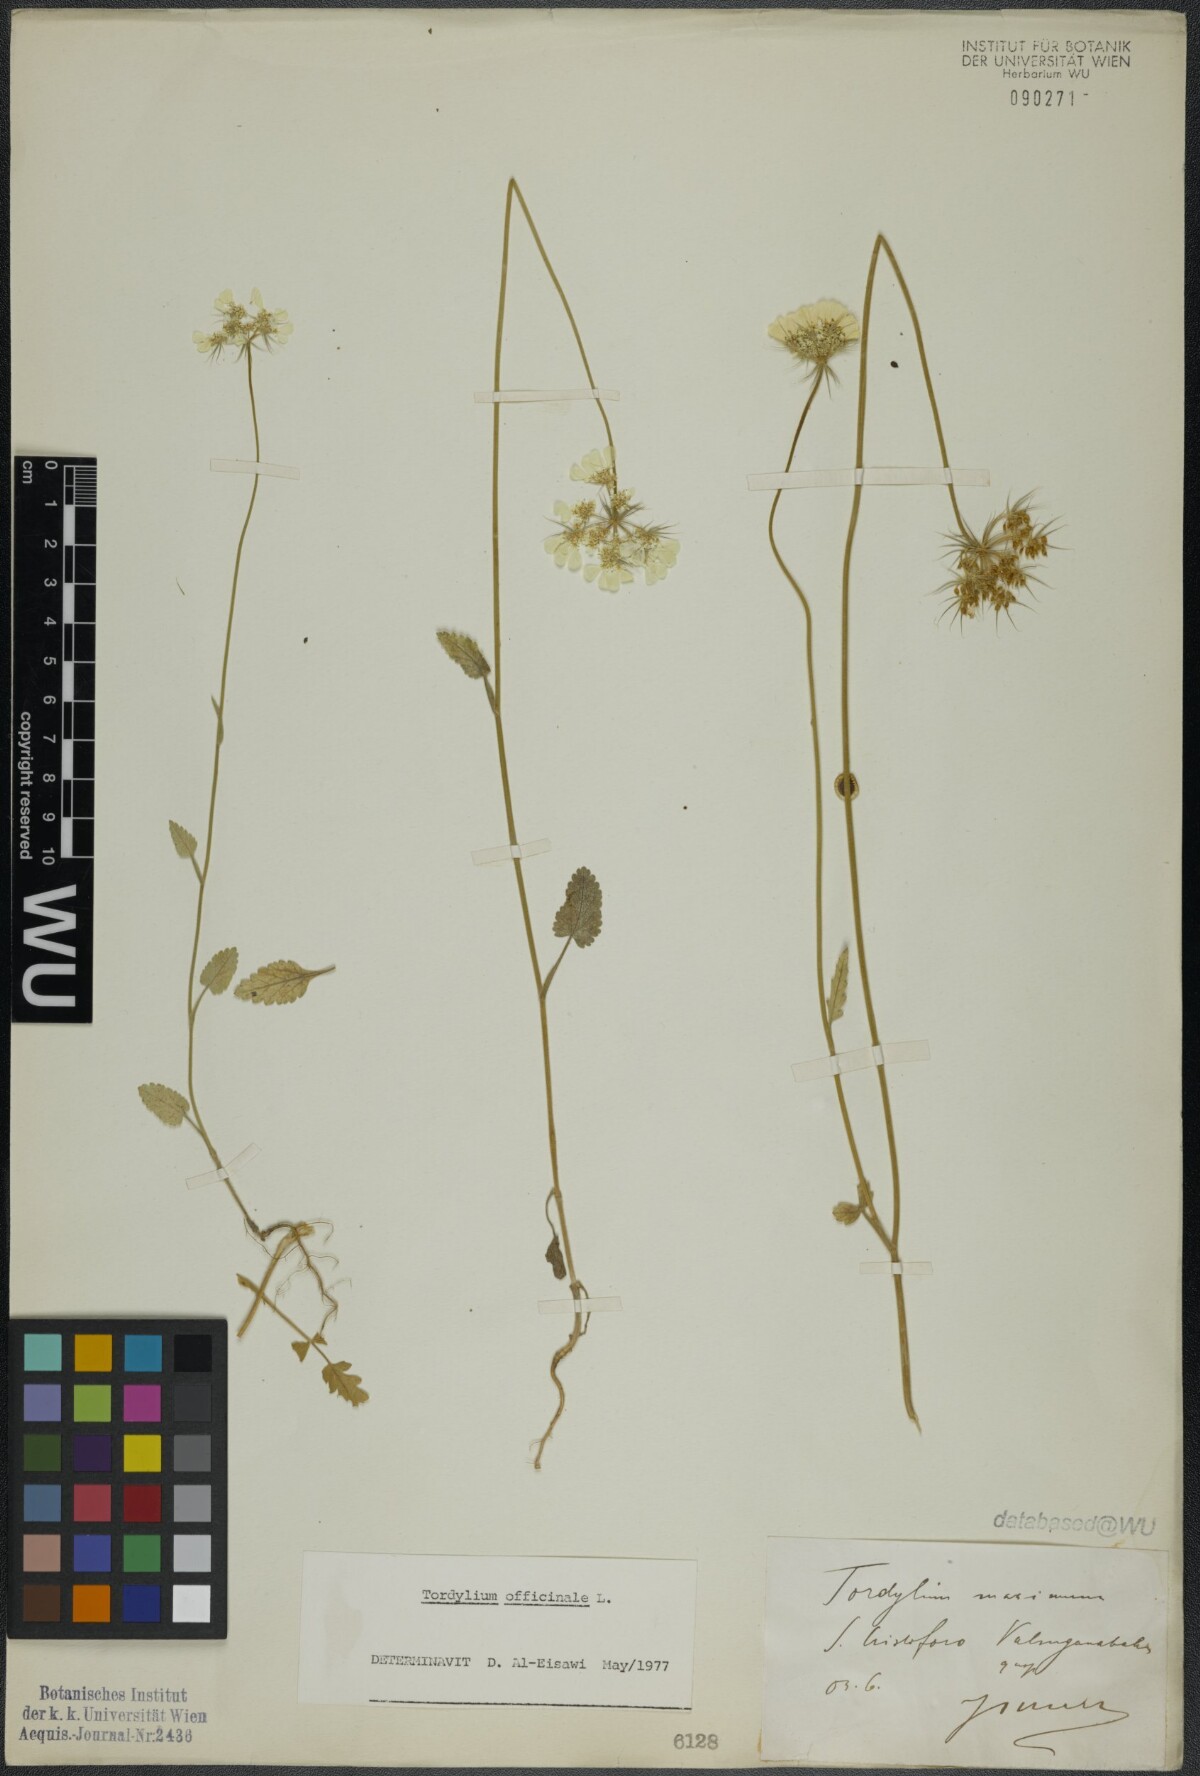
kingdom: Plantae
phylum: Tracheophyta
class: Magnoliopsida
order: Apiales
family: Apiaceae
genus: Tordylium
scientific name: Tordylium officinale
